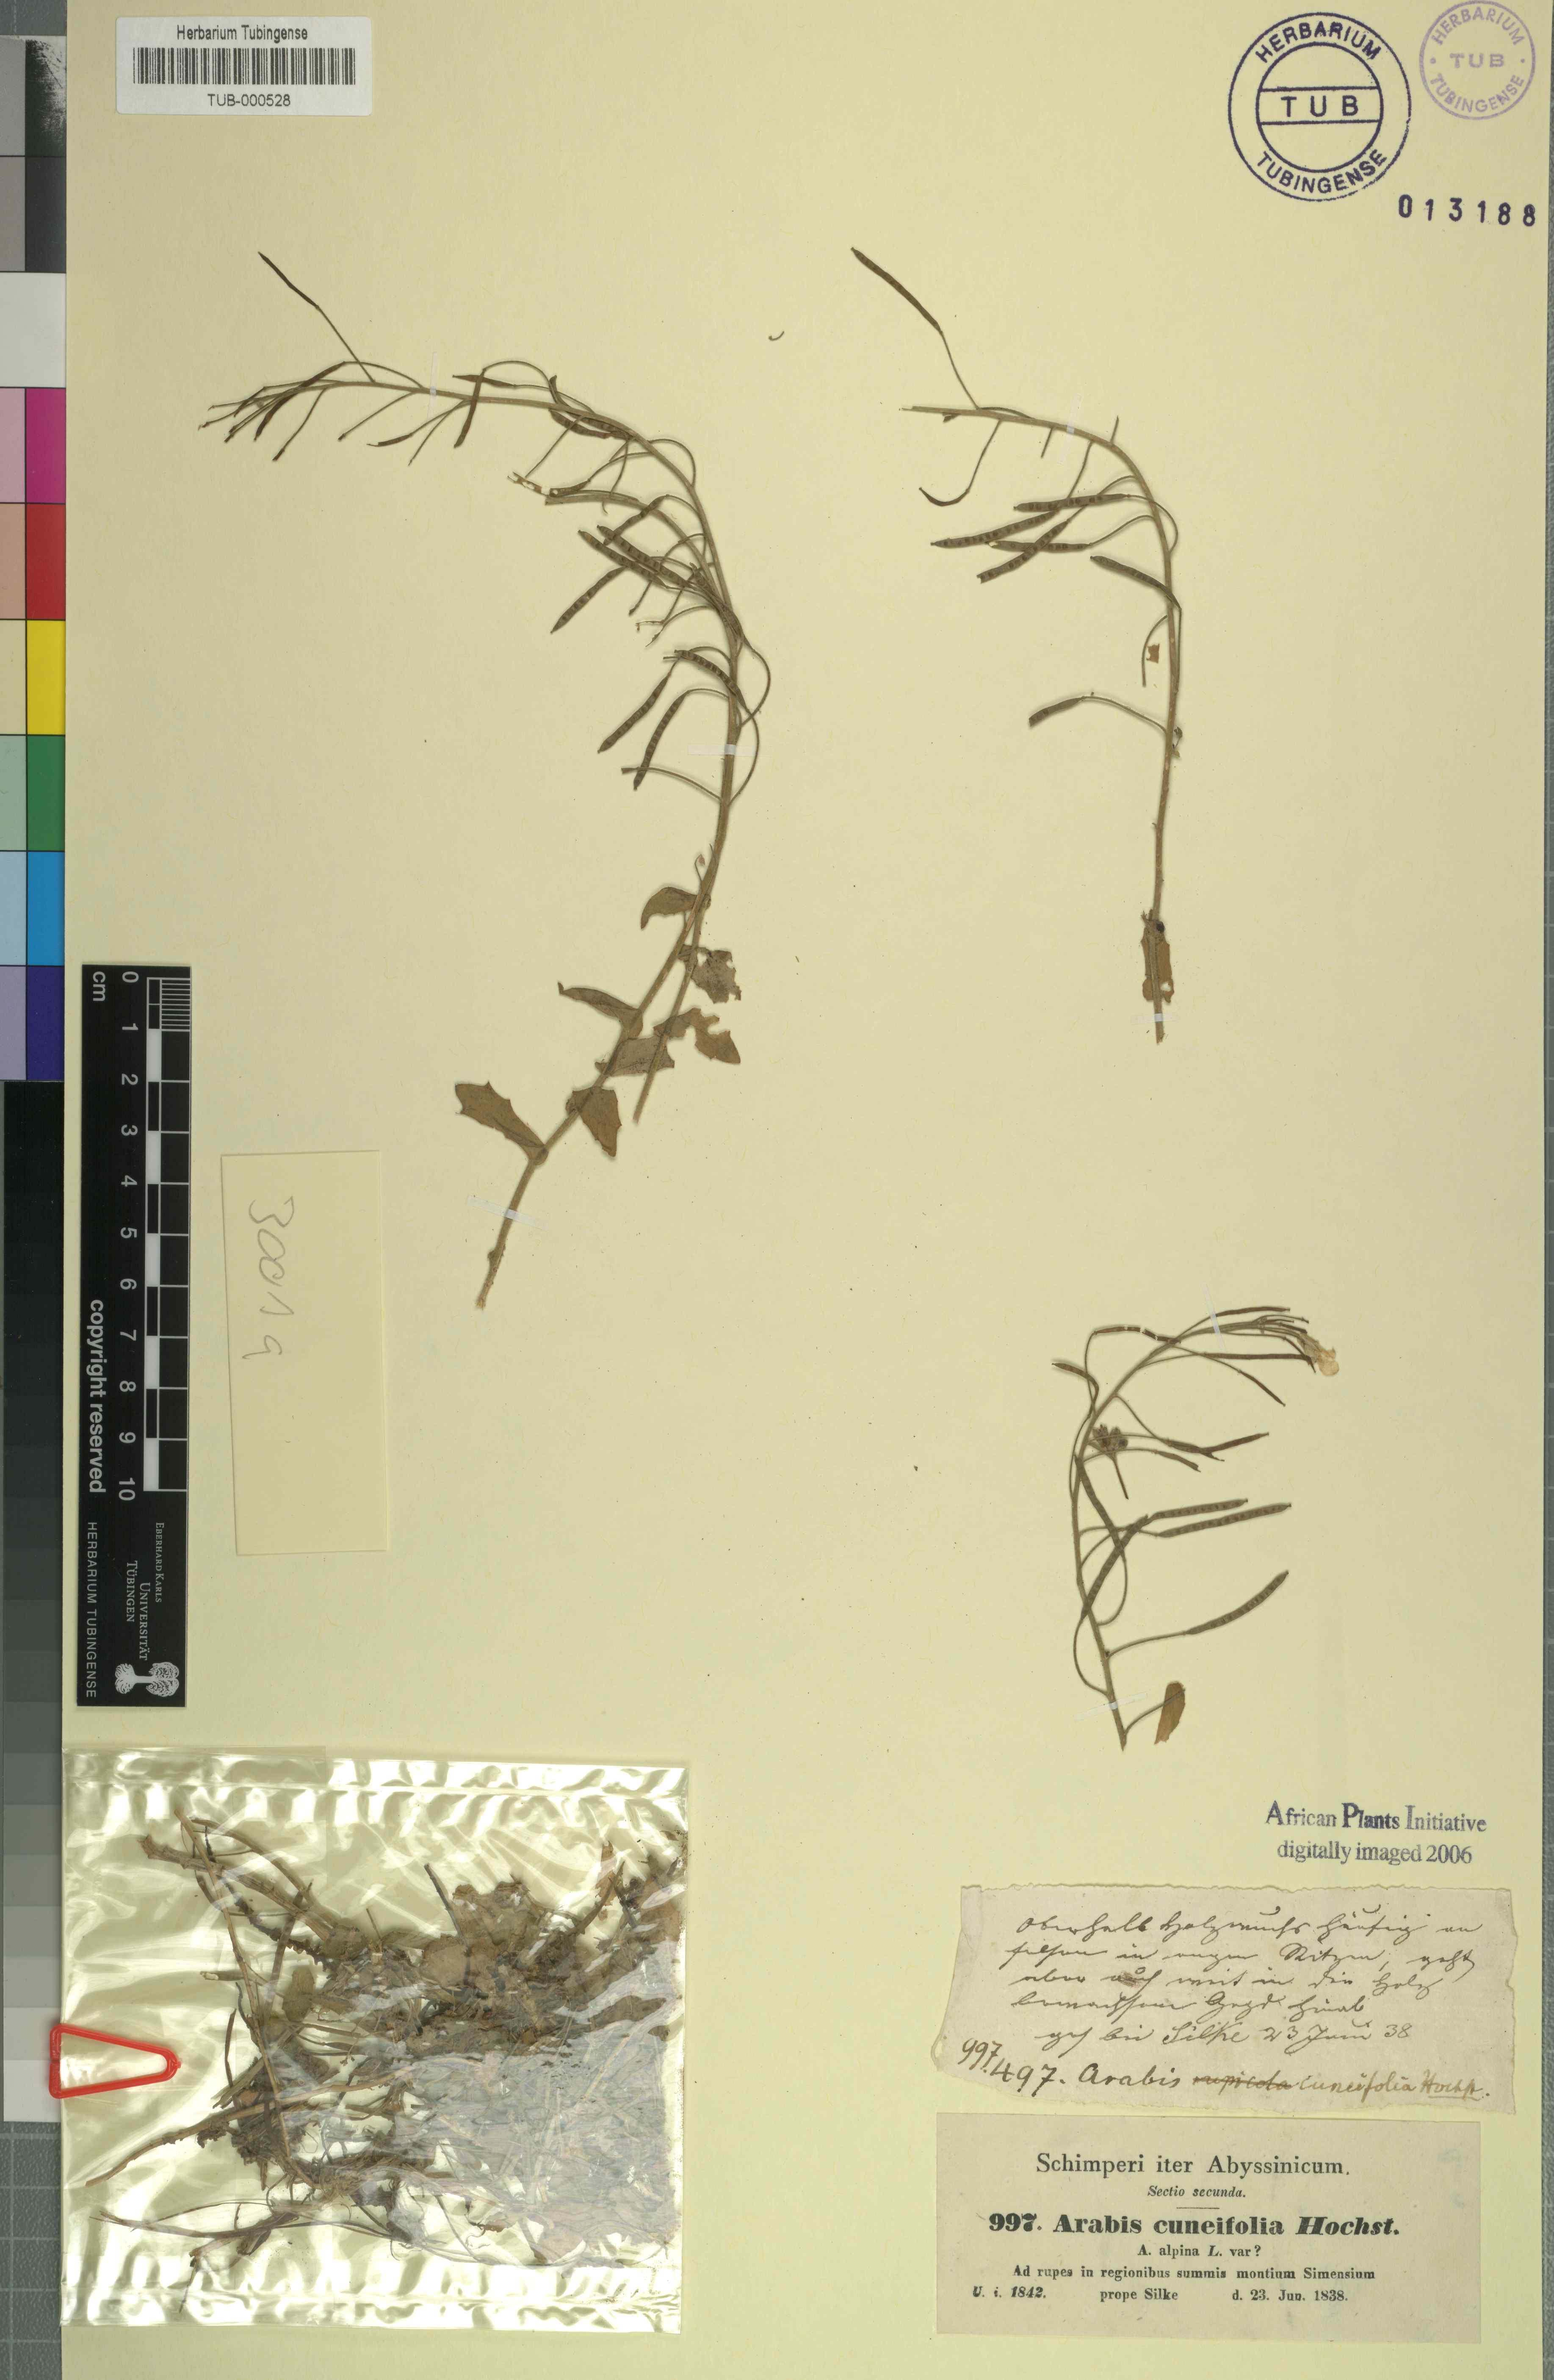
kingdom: Plantae
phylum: Tracheophyta
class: Magnoliopsida
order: Brassicales
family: Brassicaceae
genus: Arabis
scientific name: Arabis alpina
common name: Alpine rock-cress
